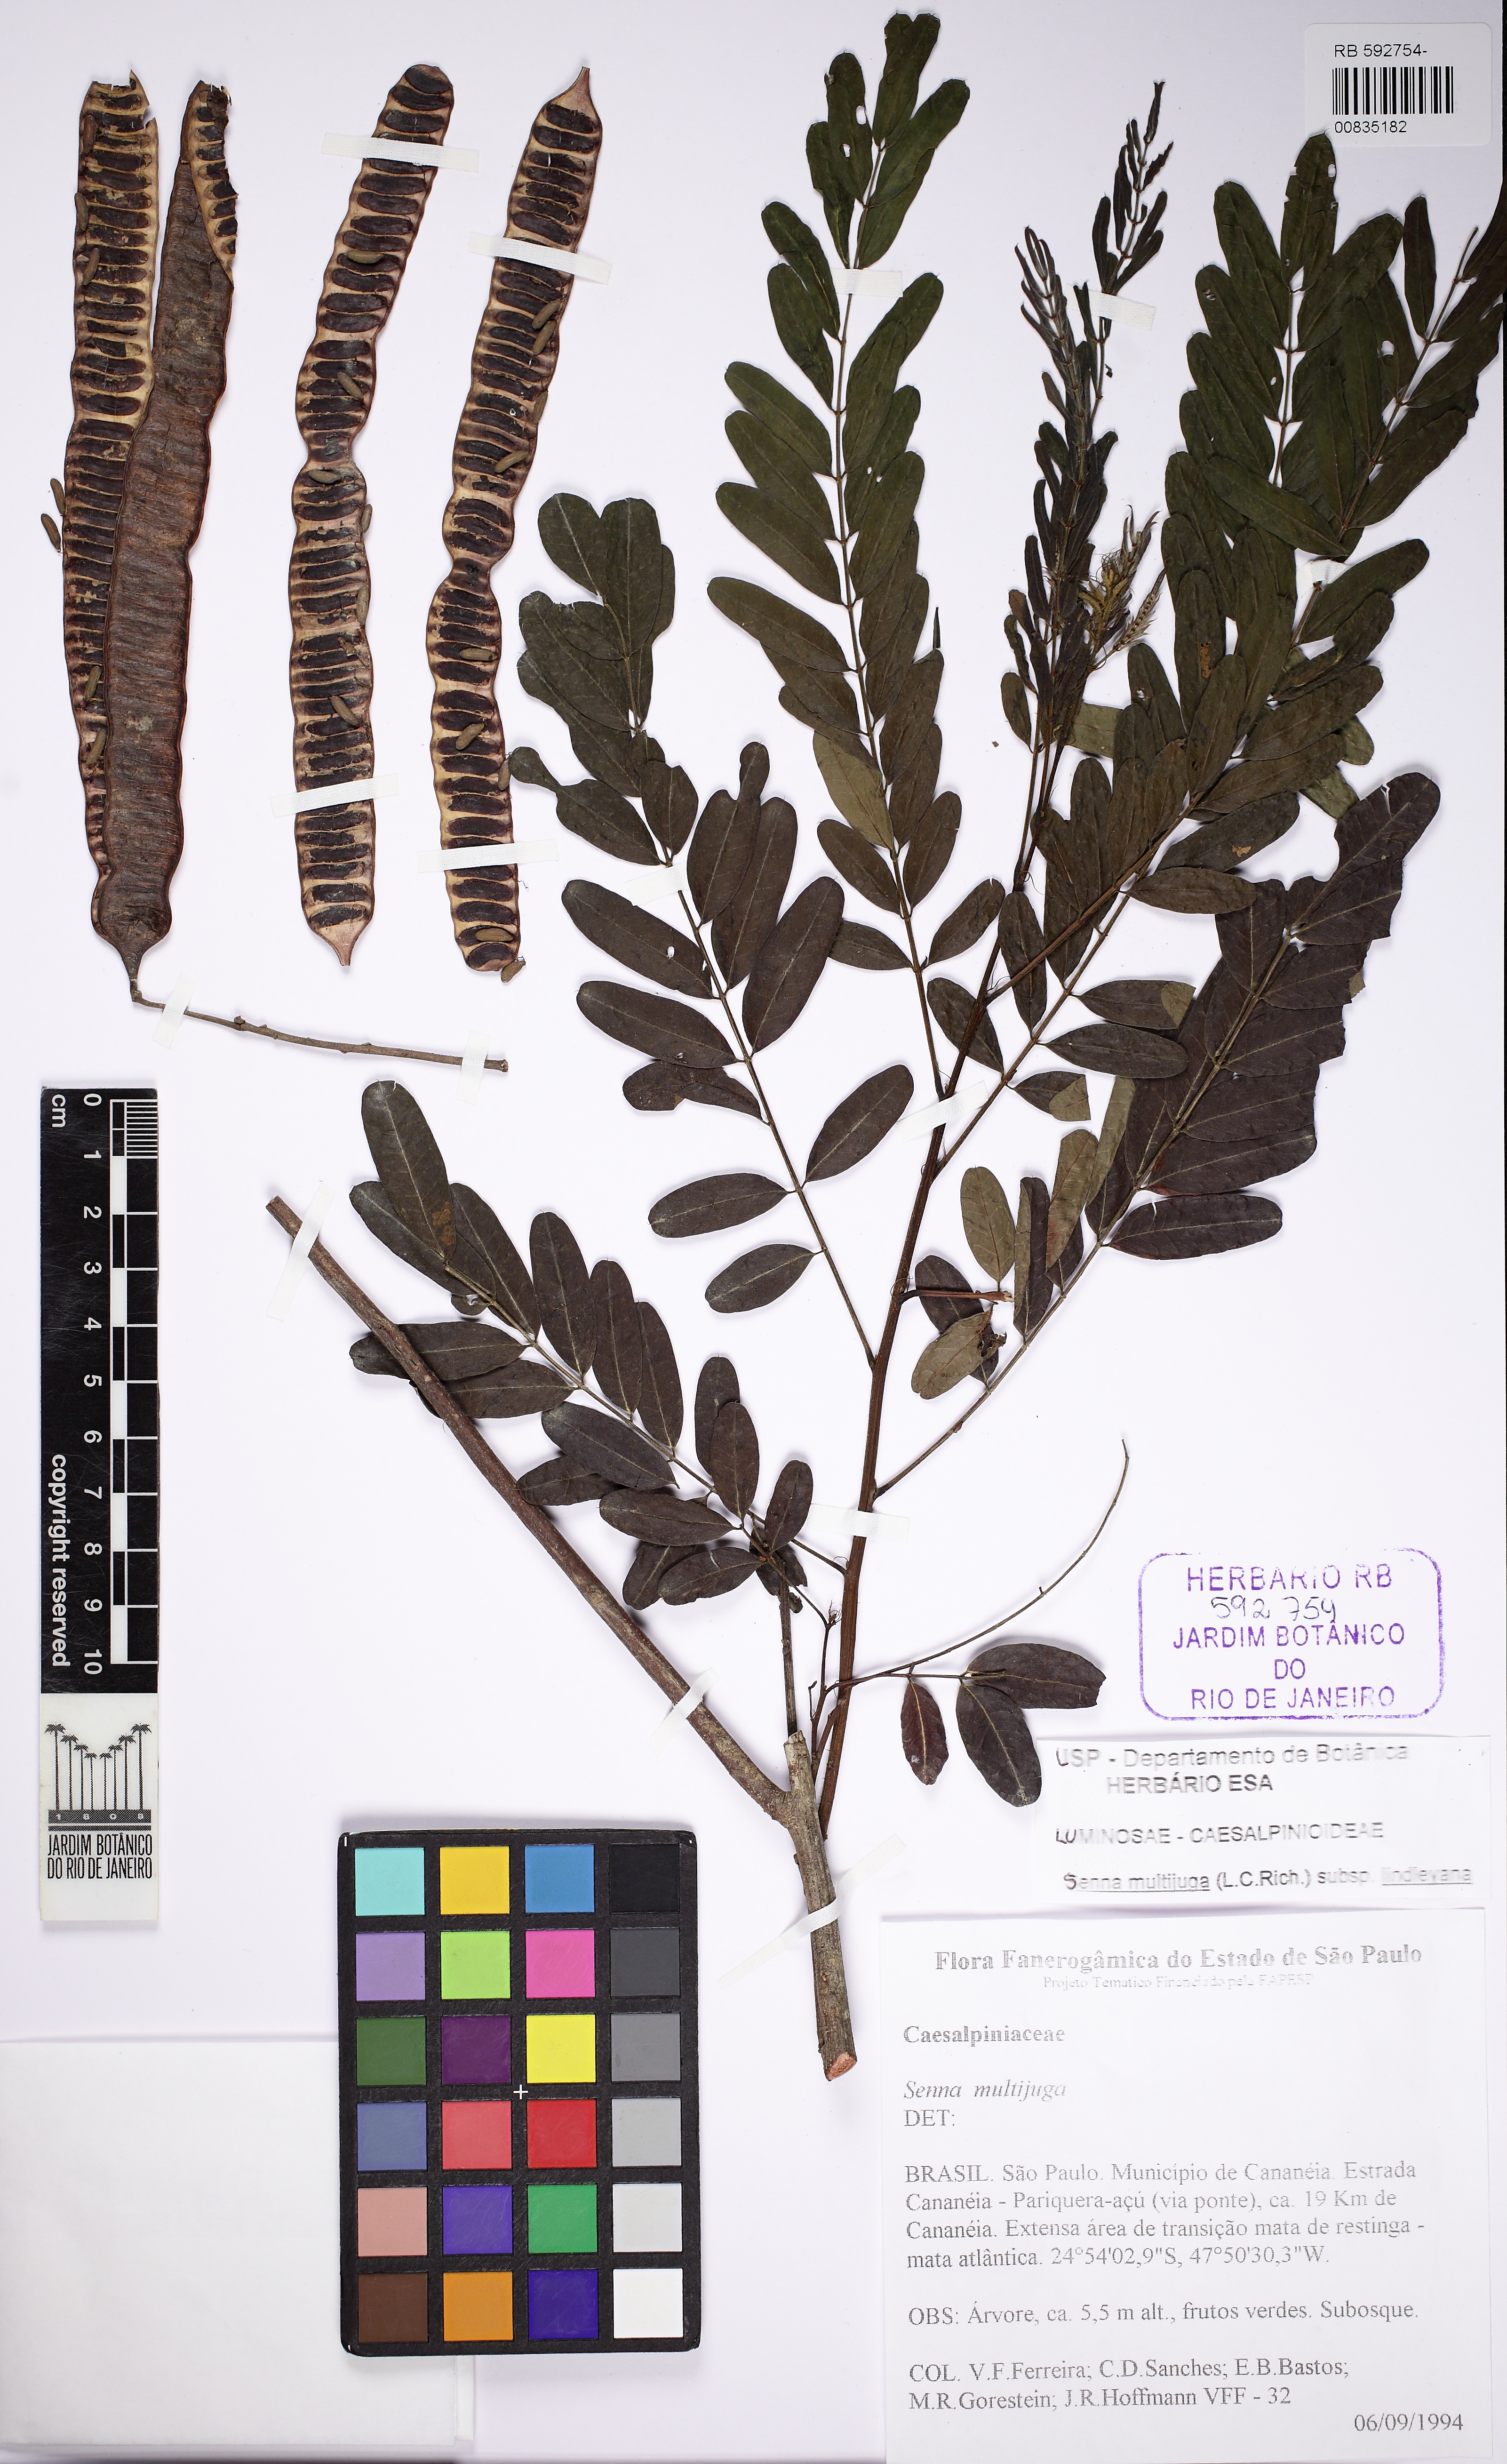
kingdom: Plantae
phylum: Tracheophyta
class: Magnoliopsida
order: Fabales
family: Fabaceae
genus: Senna
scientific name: Senna multijuga
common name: False sicklepod
